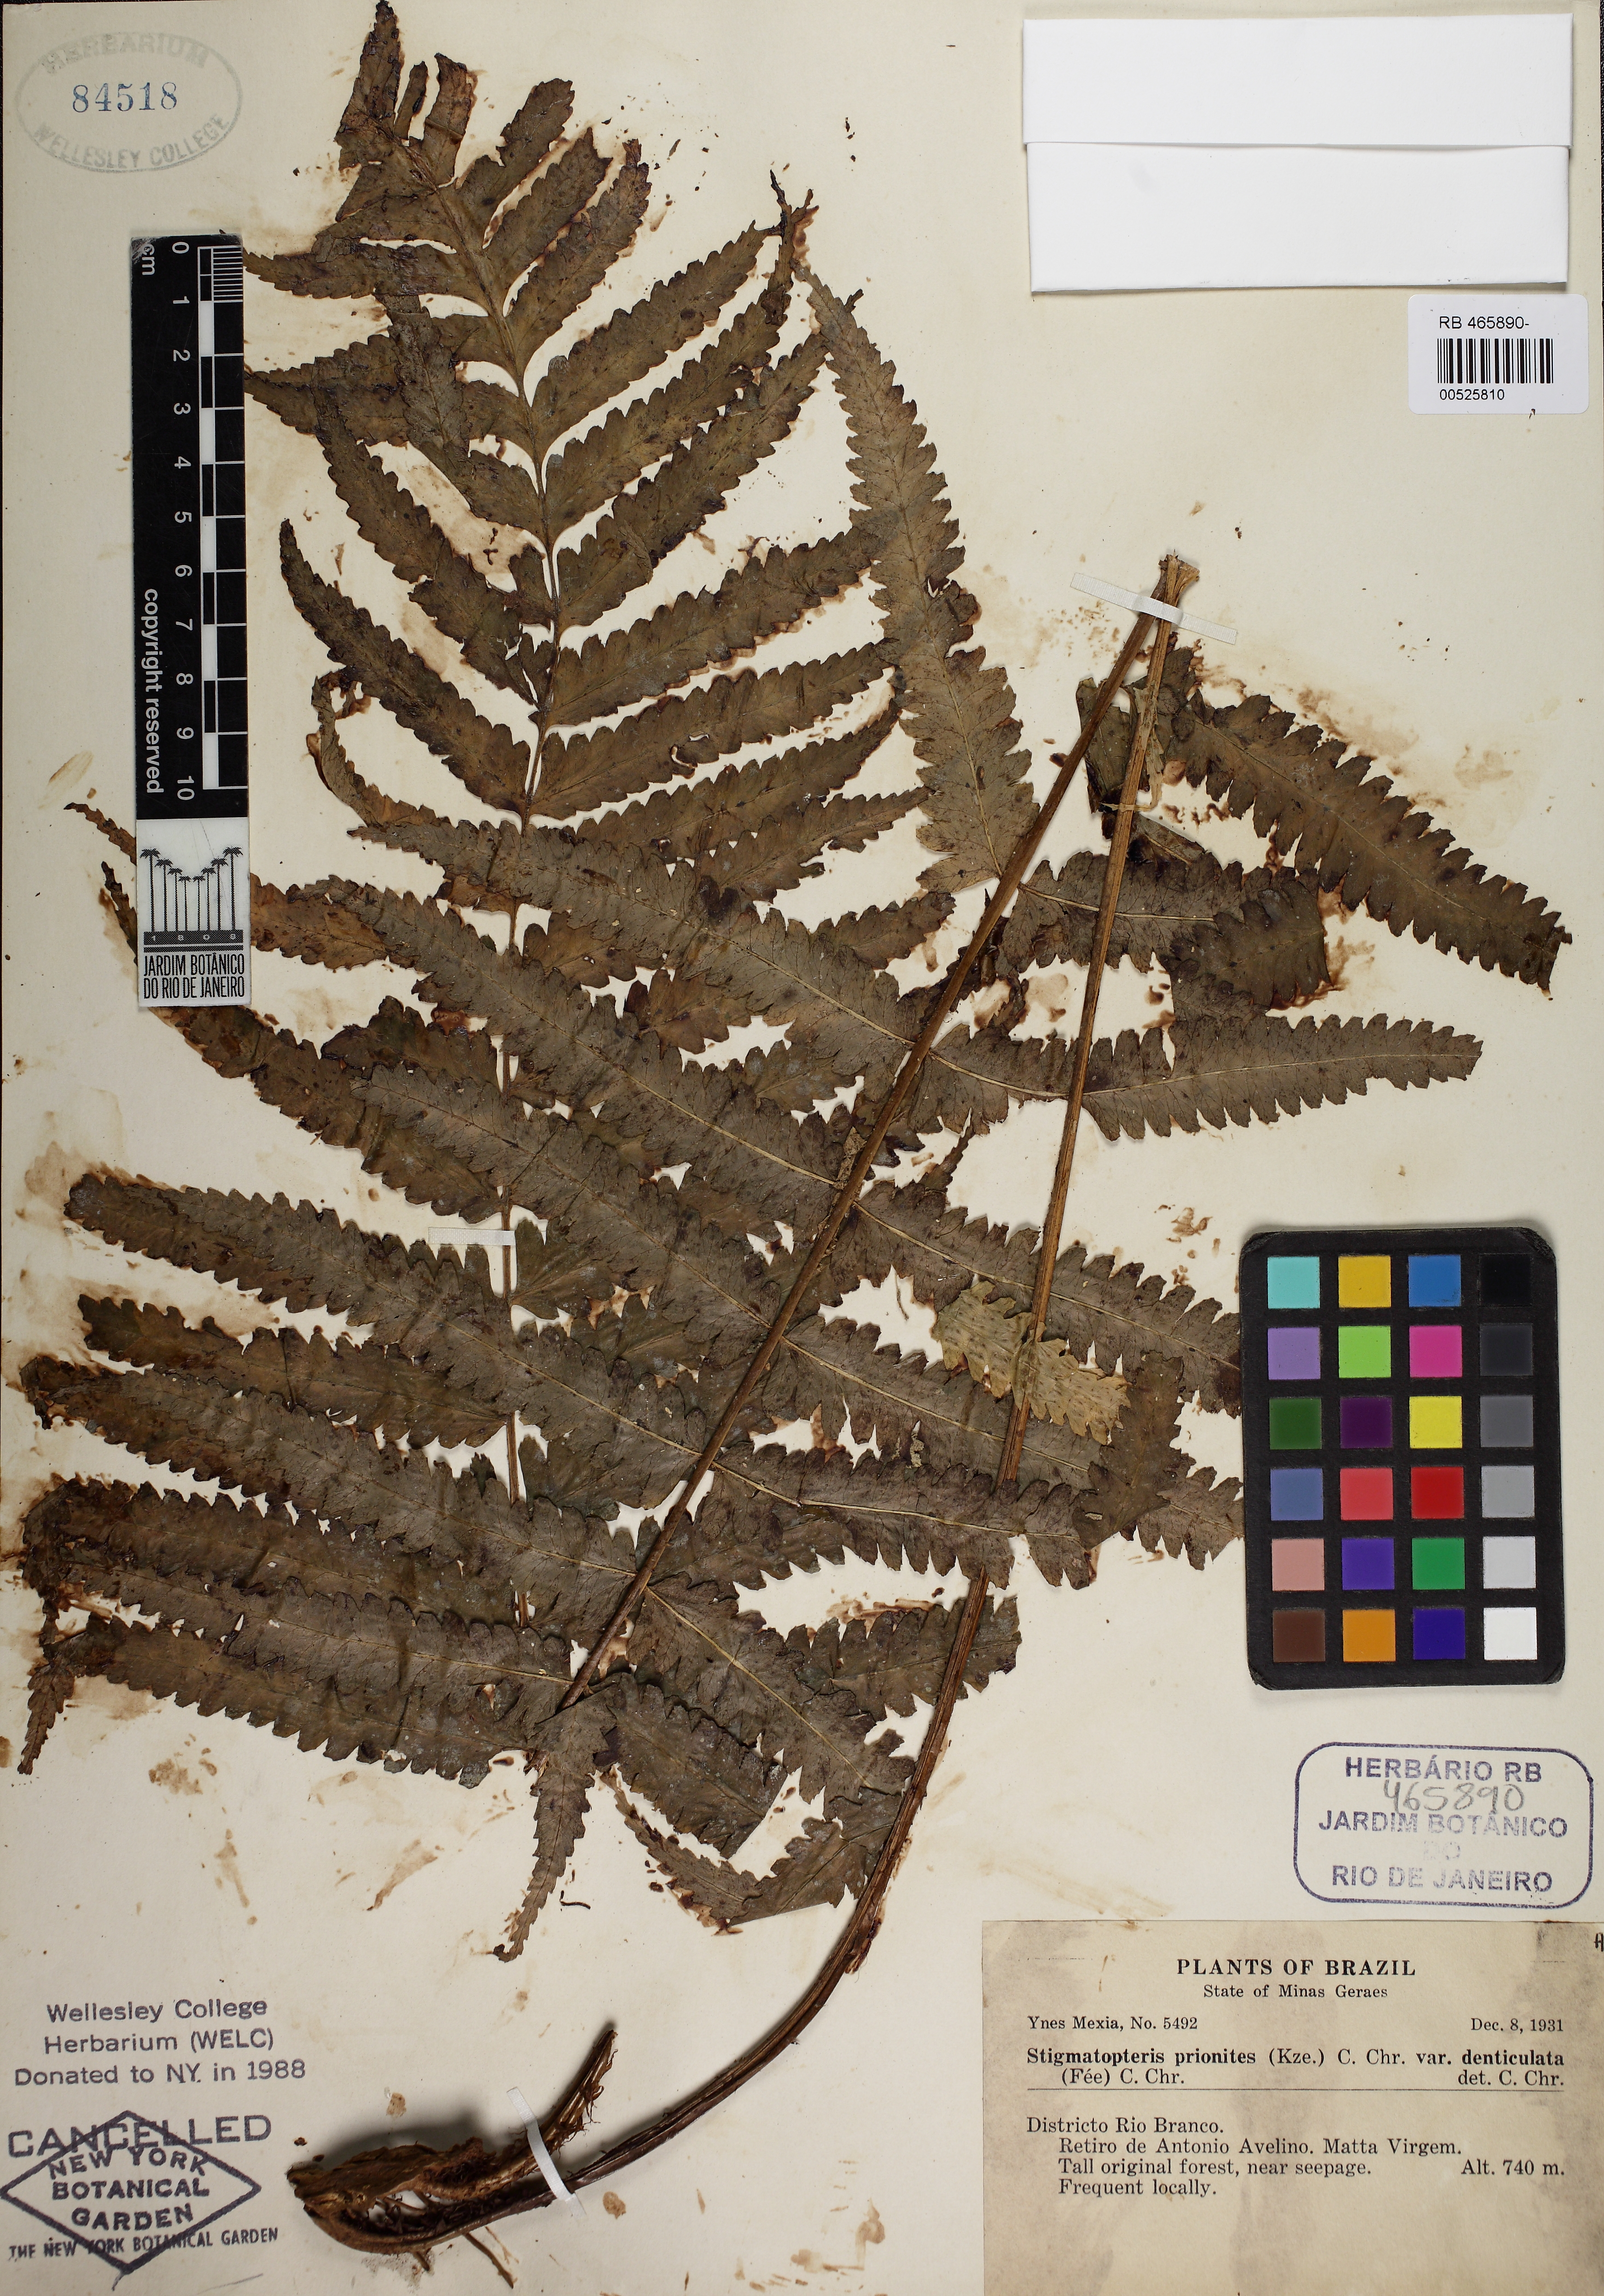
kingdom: Plantae
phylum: Tracheophyta
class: Polypodiopsida
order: Polypodiales
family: Dryopteridaceae
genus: Stigmatopteris
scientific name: Stigmatopteris prionites
